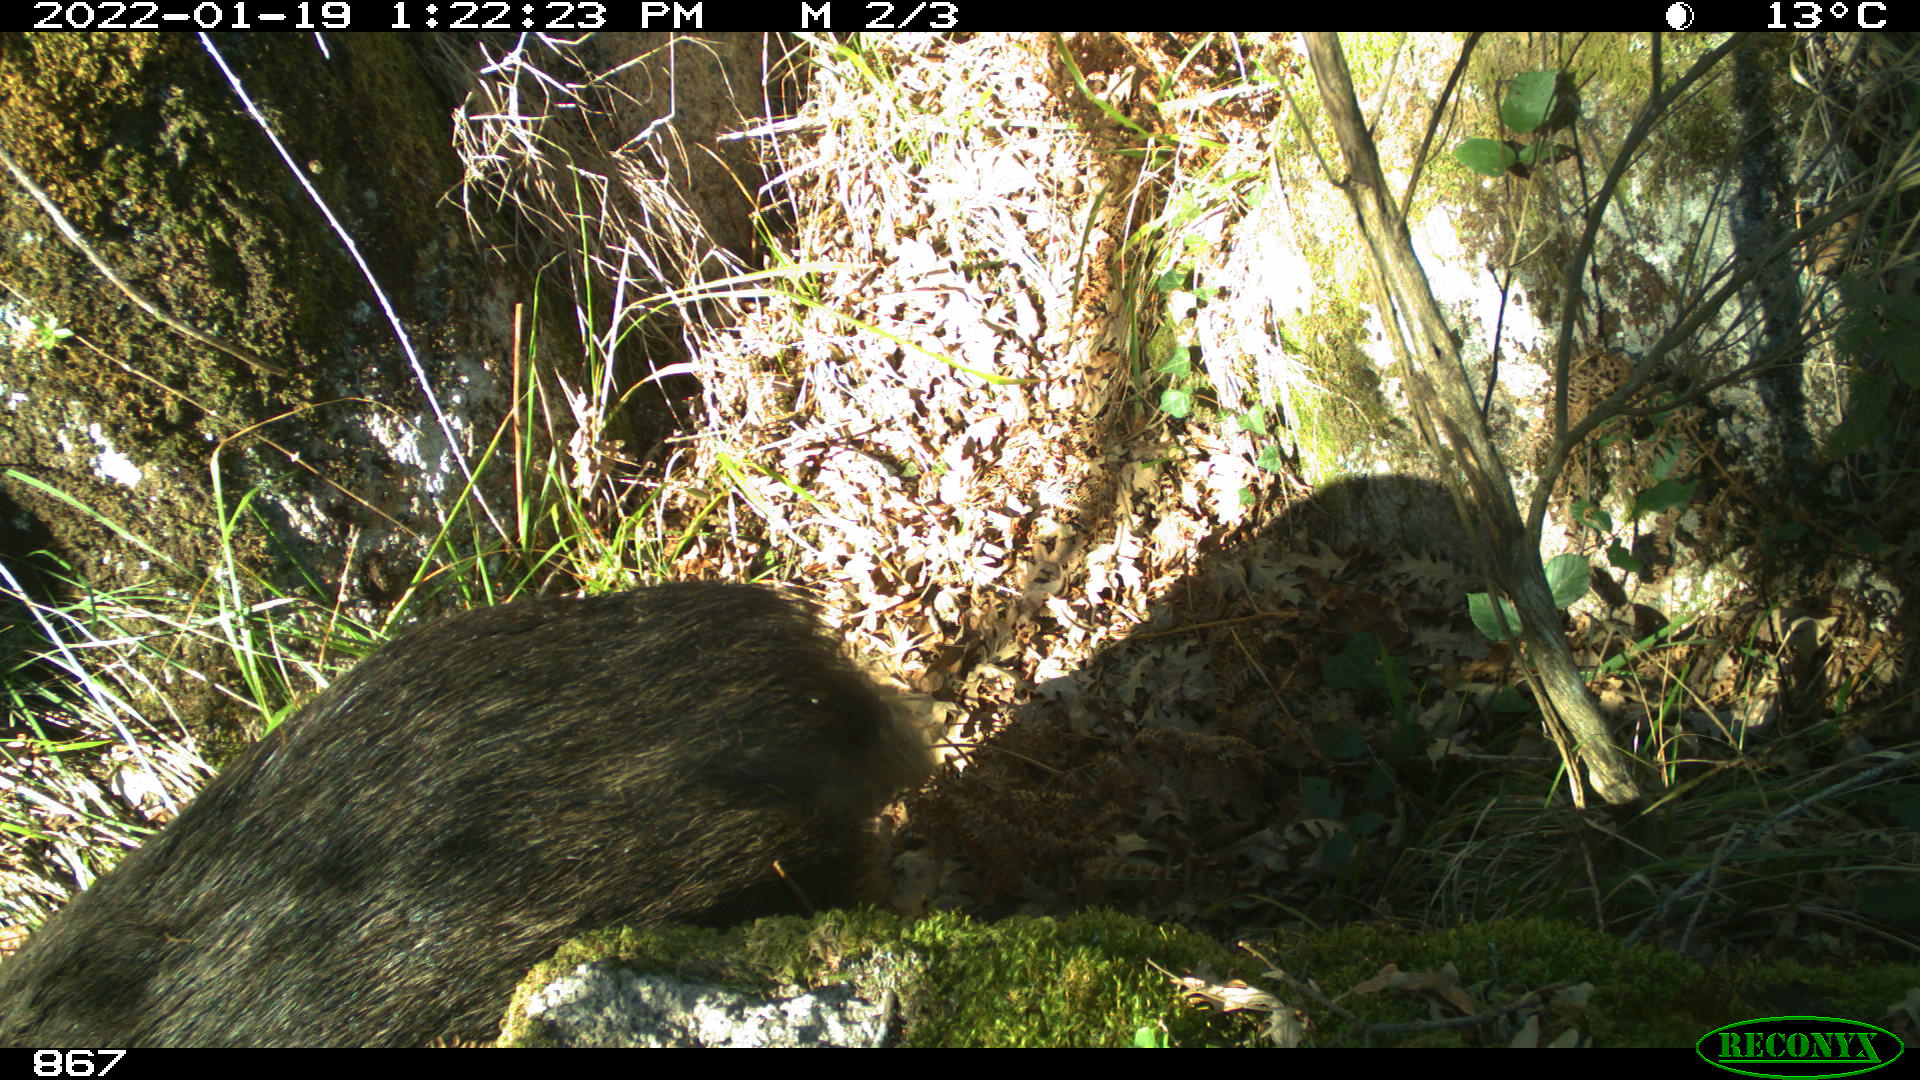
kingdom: Animalia
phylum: Chordata
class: Mammalia
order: Artiodactyla
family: Suidae
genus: Sus
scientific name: Sus scrofa
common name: Wild boar
